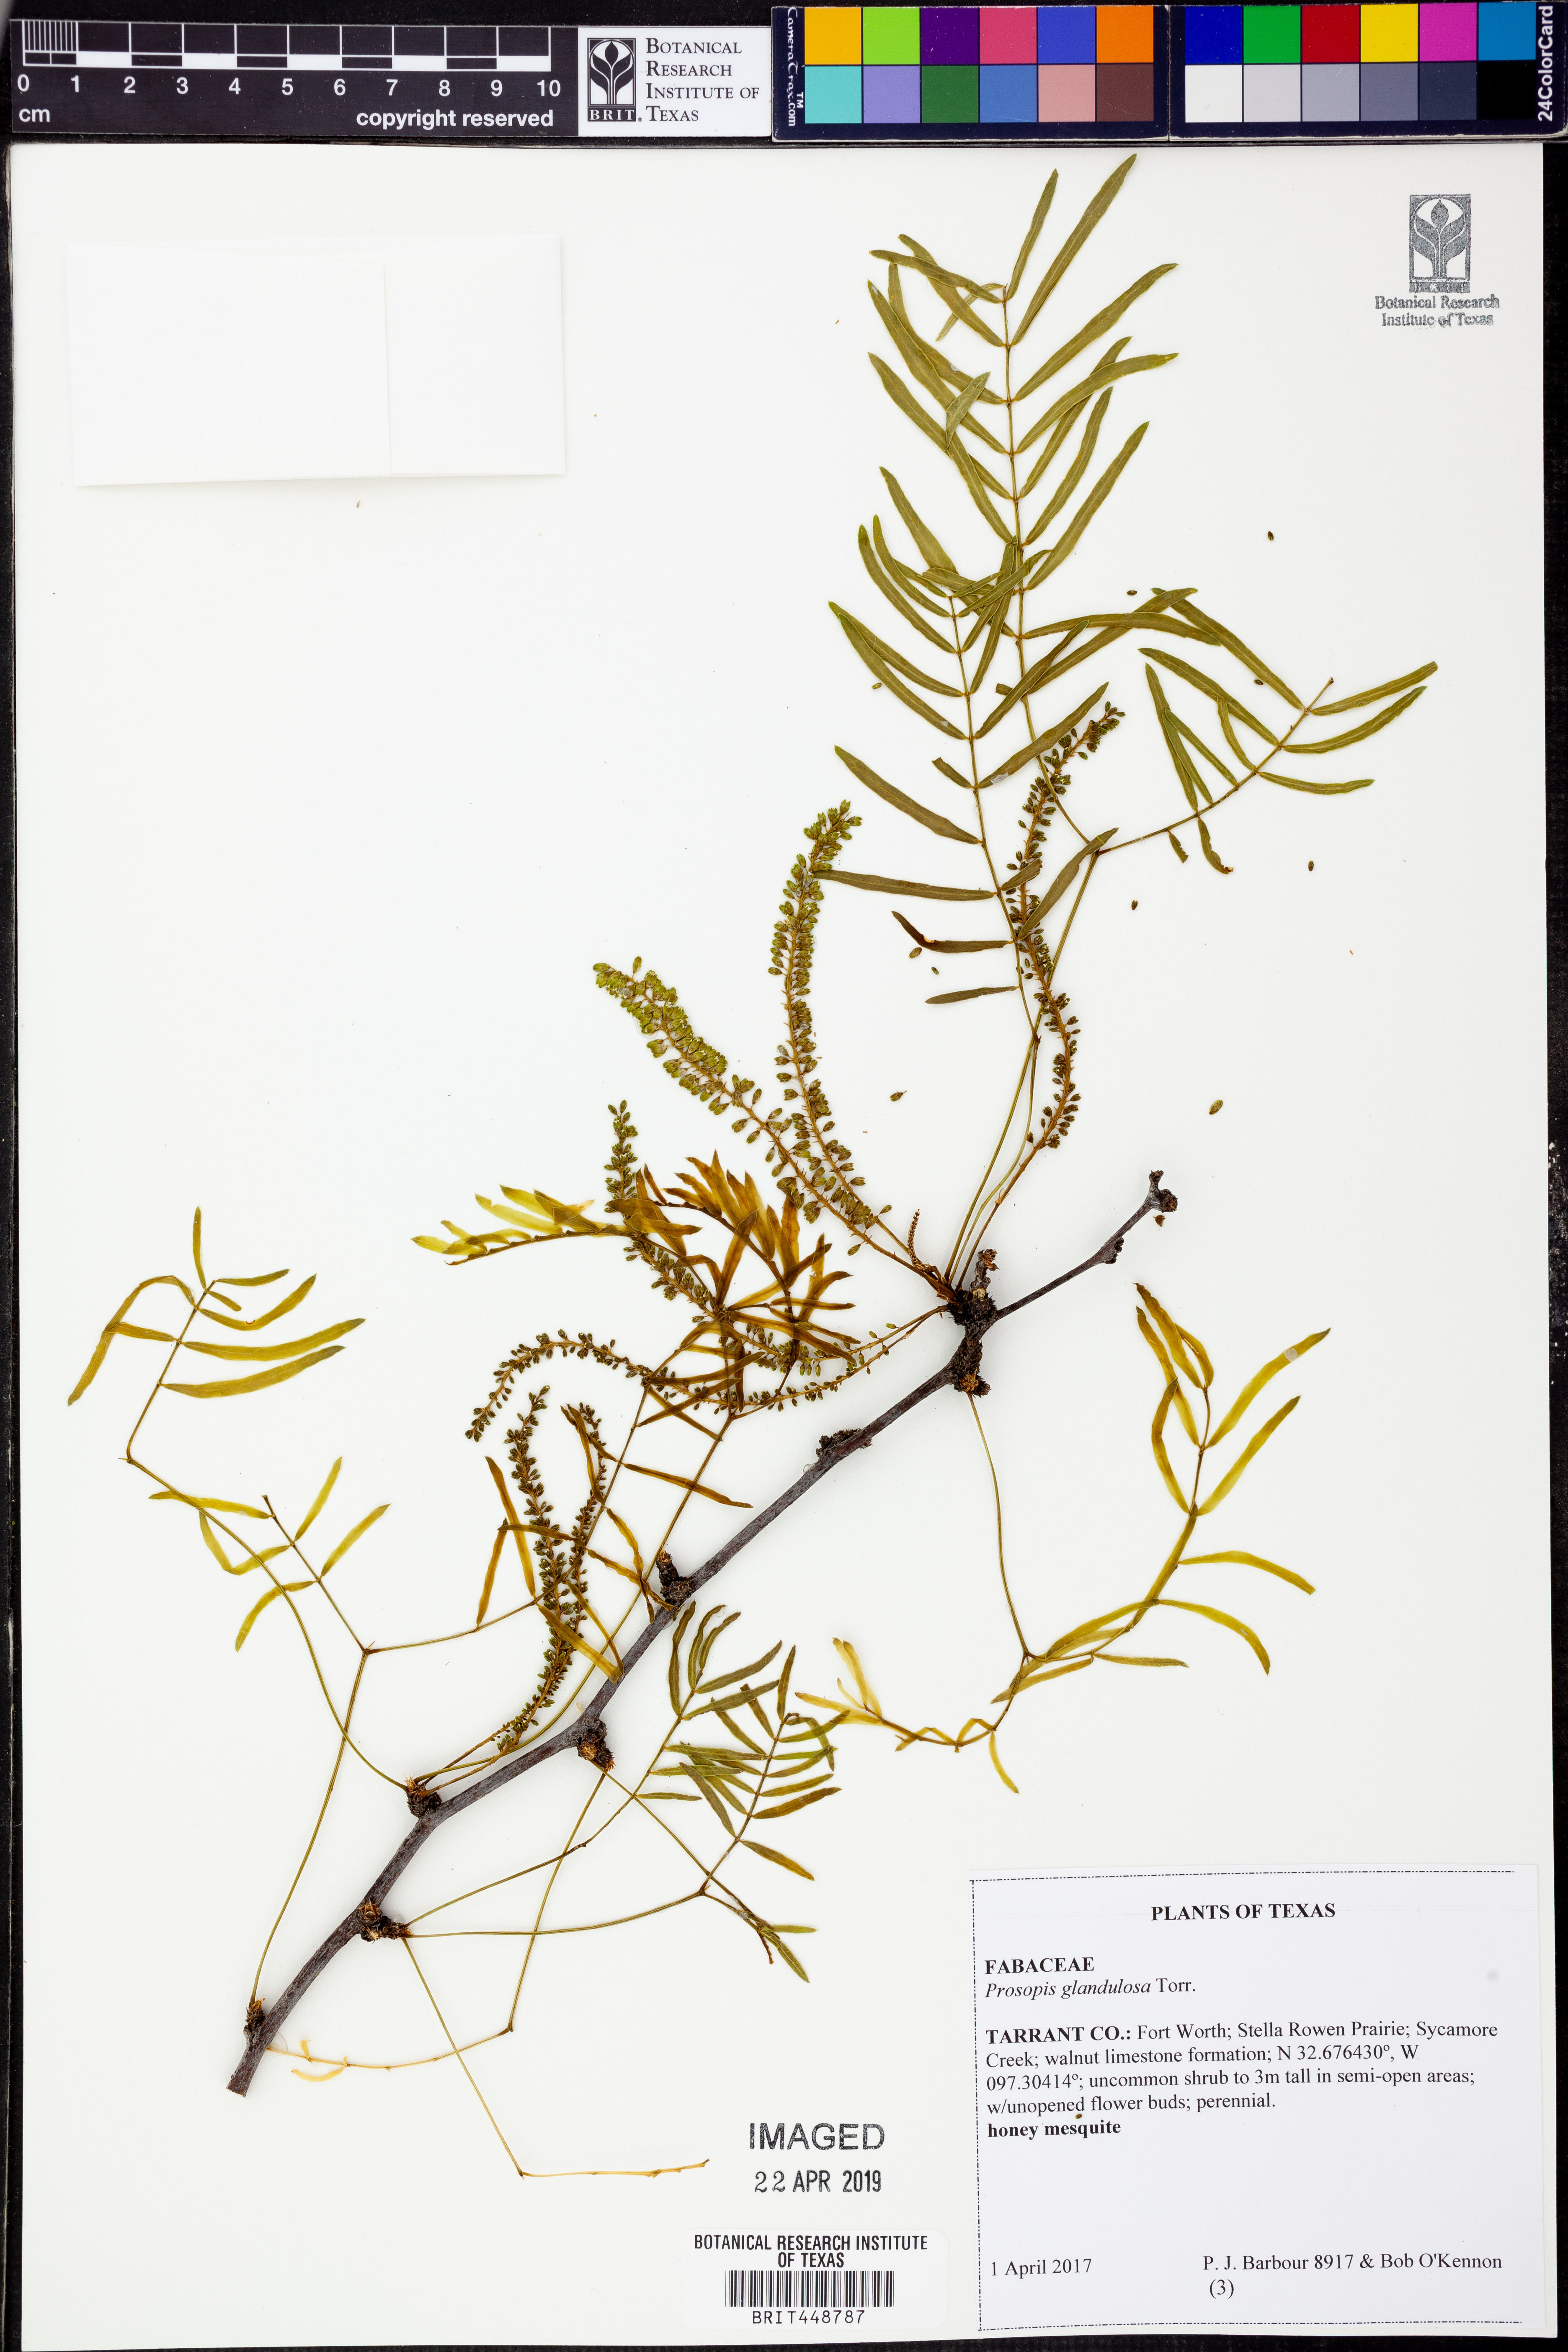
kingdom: Plantae
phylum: Tracheophyta
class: Magnoliopsida
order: Fabales
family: Fabaceae
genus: Prosopis
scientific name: Prosopis glandulosa
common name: Honey mesquite
